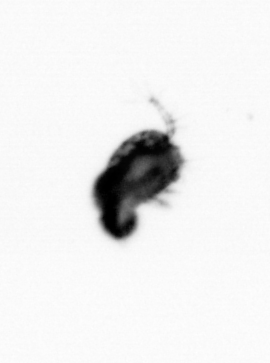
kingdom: Animalia
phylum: Arthropoda
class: Copepoda
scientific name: Copepoda
